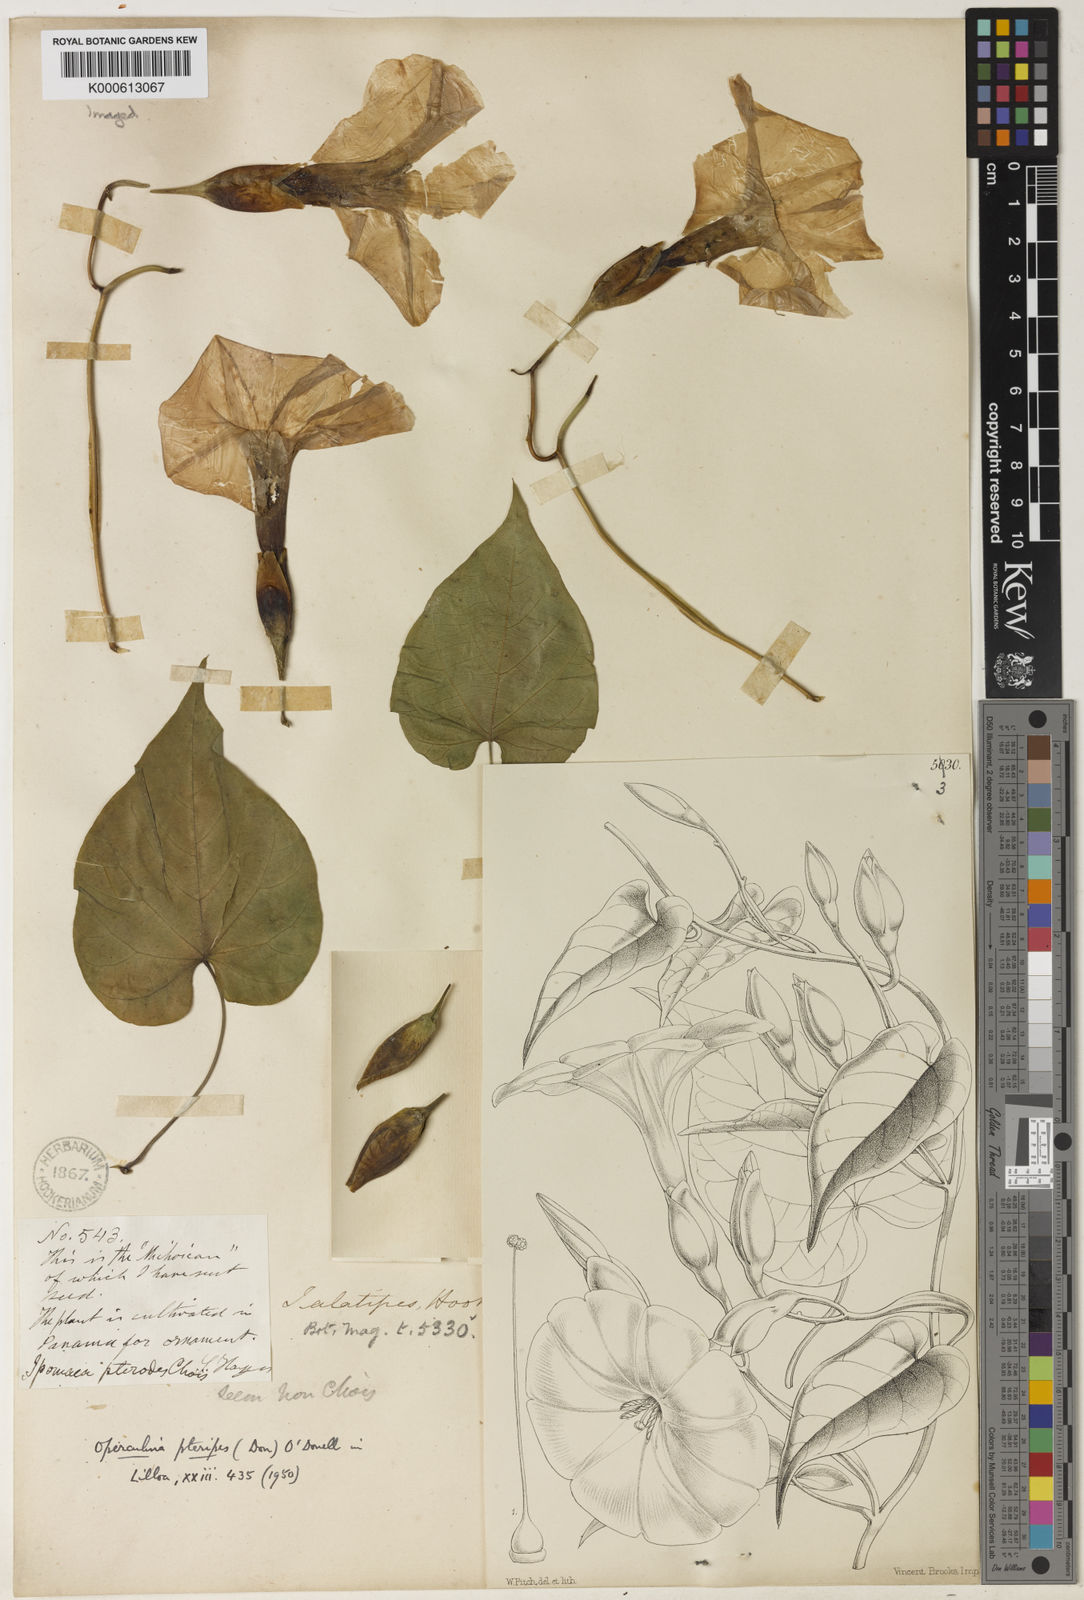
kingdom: Plantae
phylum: Tracheophyta
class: Magnoliopsida
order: Solanales
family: Convolvulaceae
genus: Operculina
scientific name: Operculina pteripes
